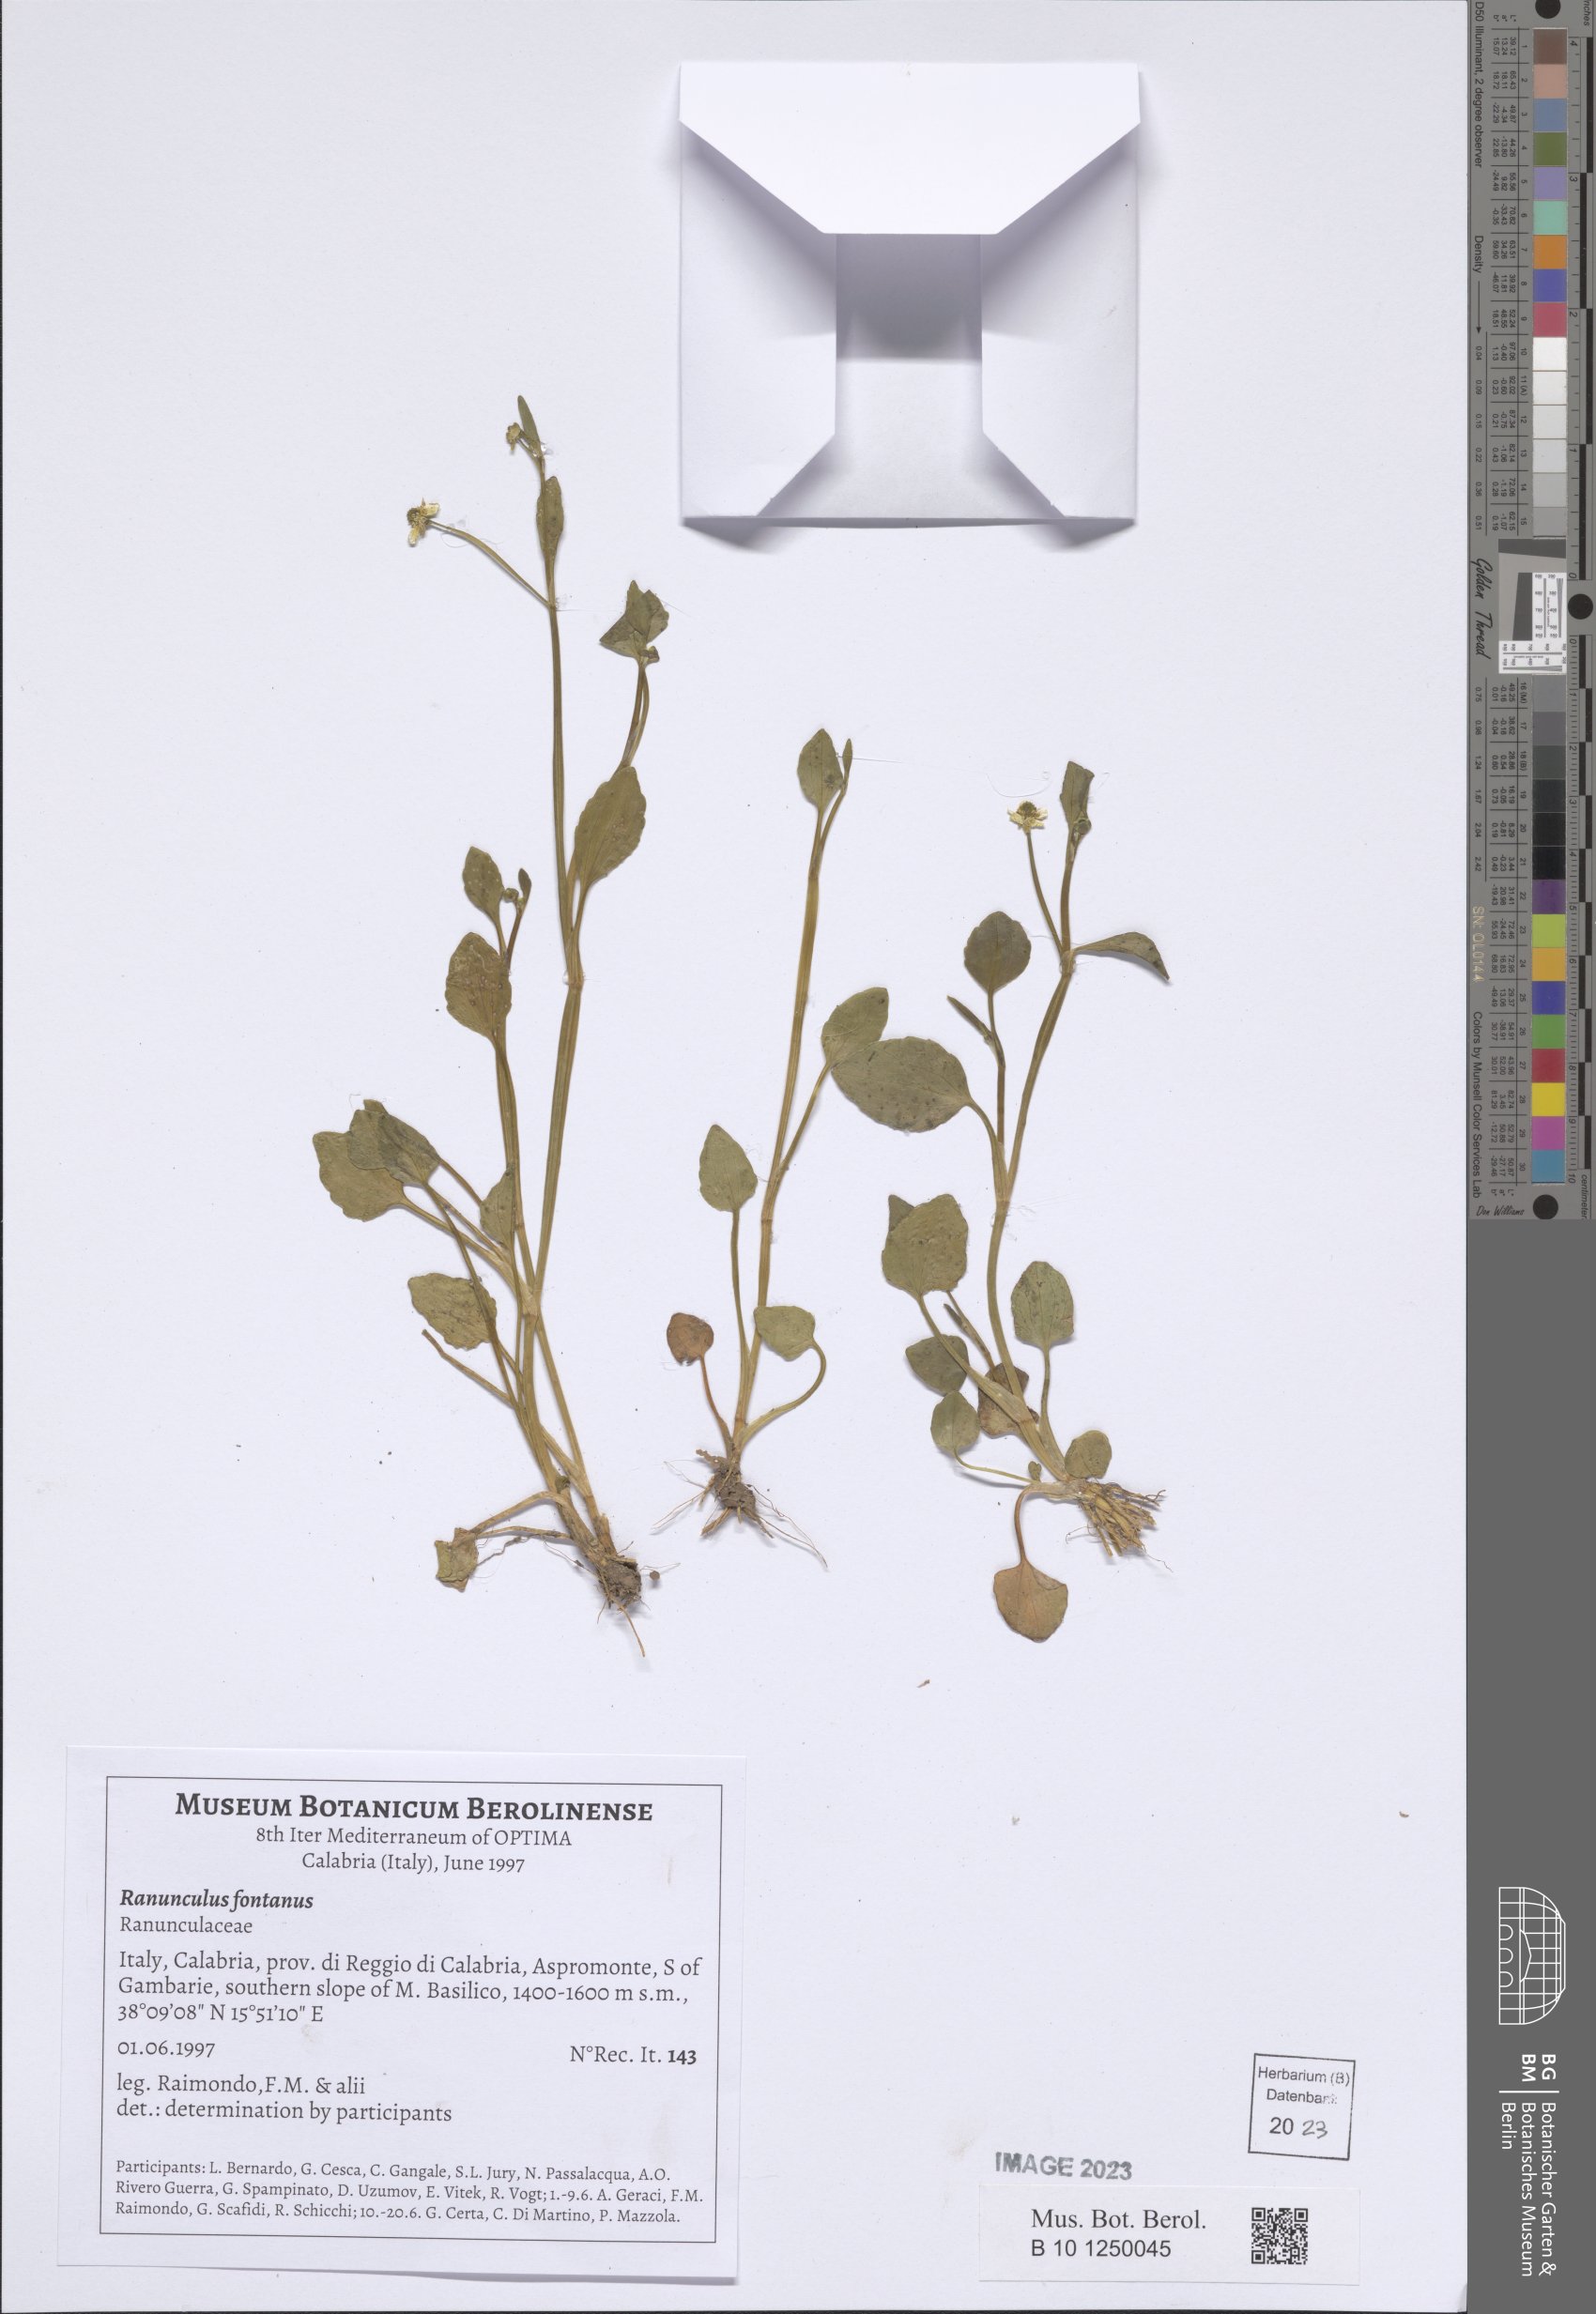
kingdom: Plantae
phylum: Tracheophyta
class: Magnoliopsida
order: Ranunculales
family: Ranunculaceae
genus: Ranunculus
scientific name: Ranunculus fontanus
